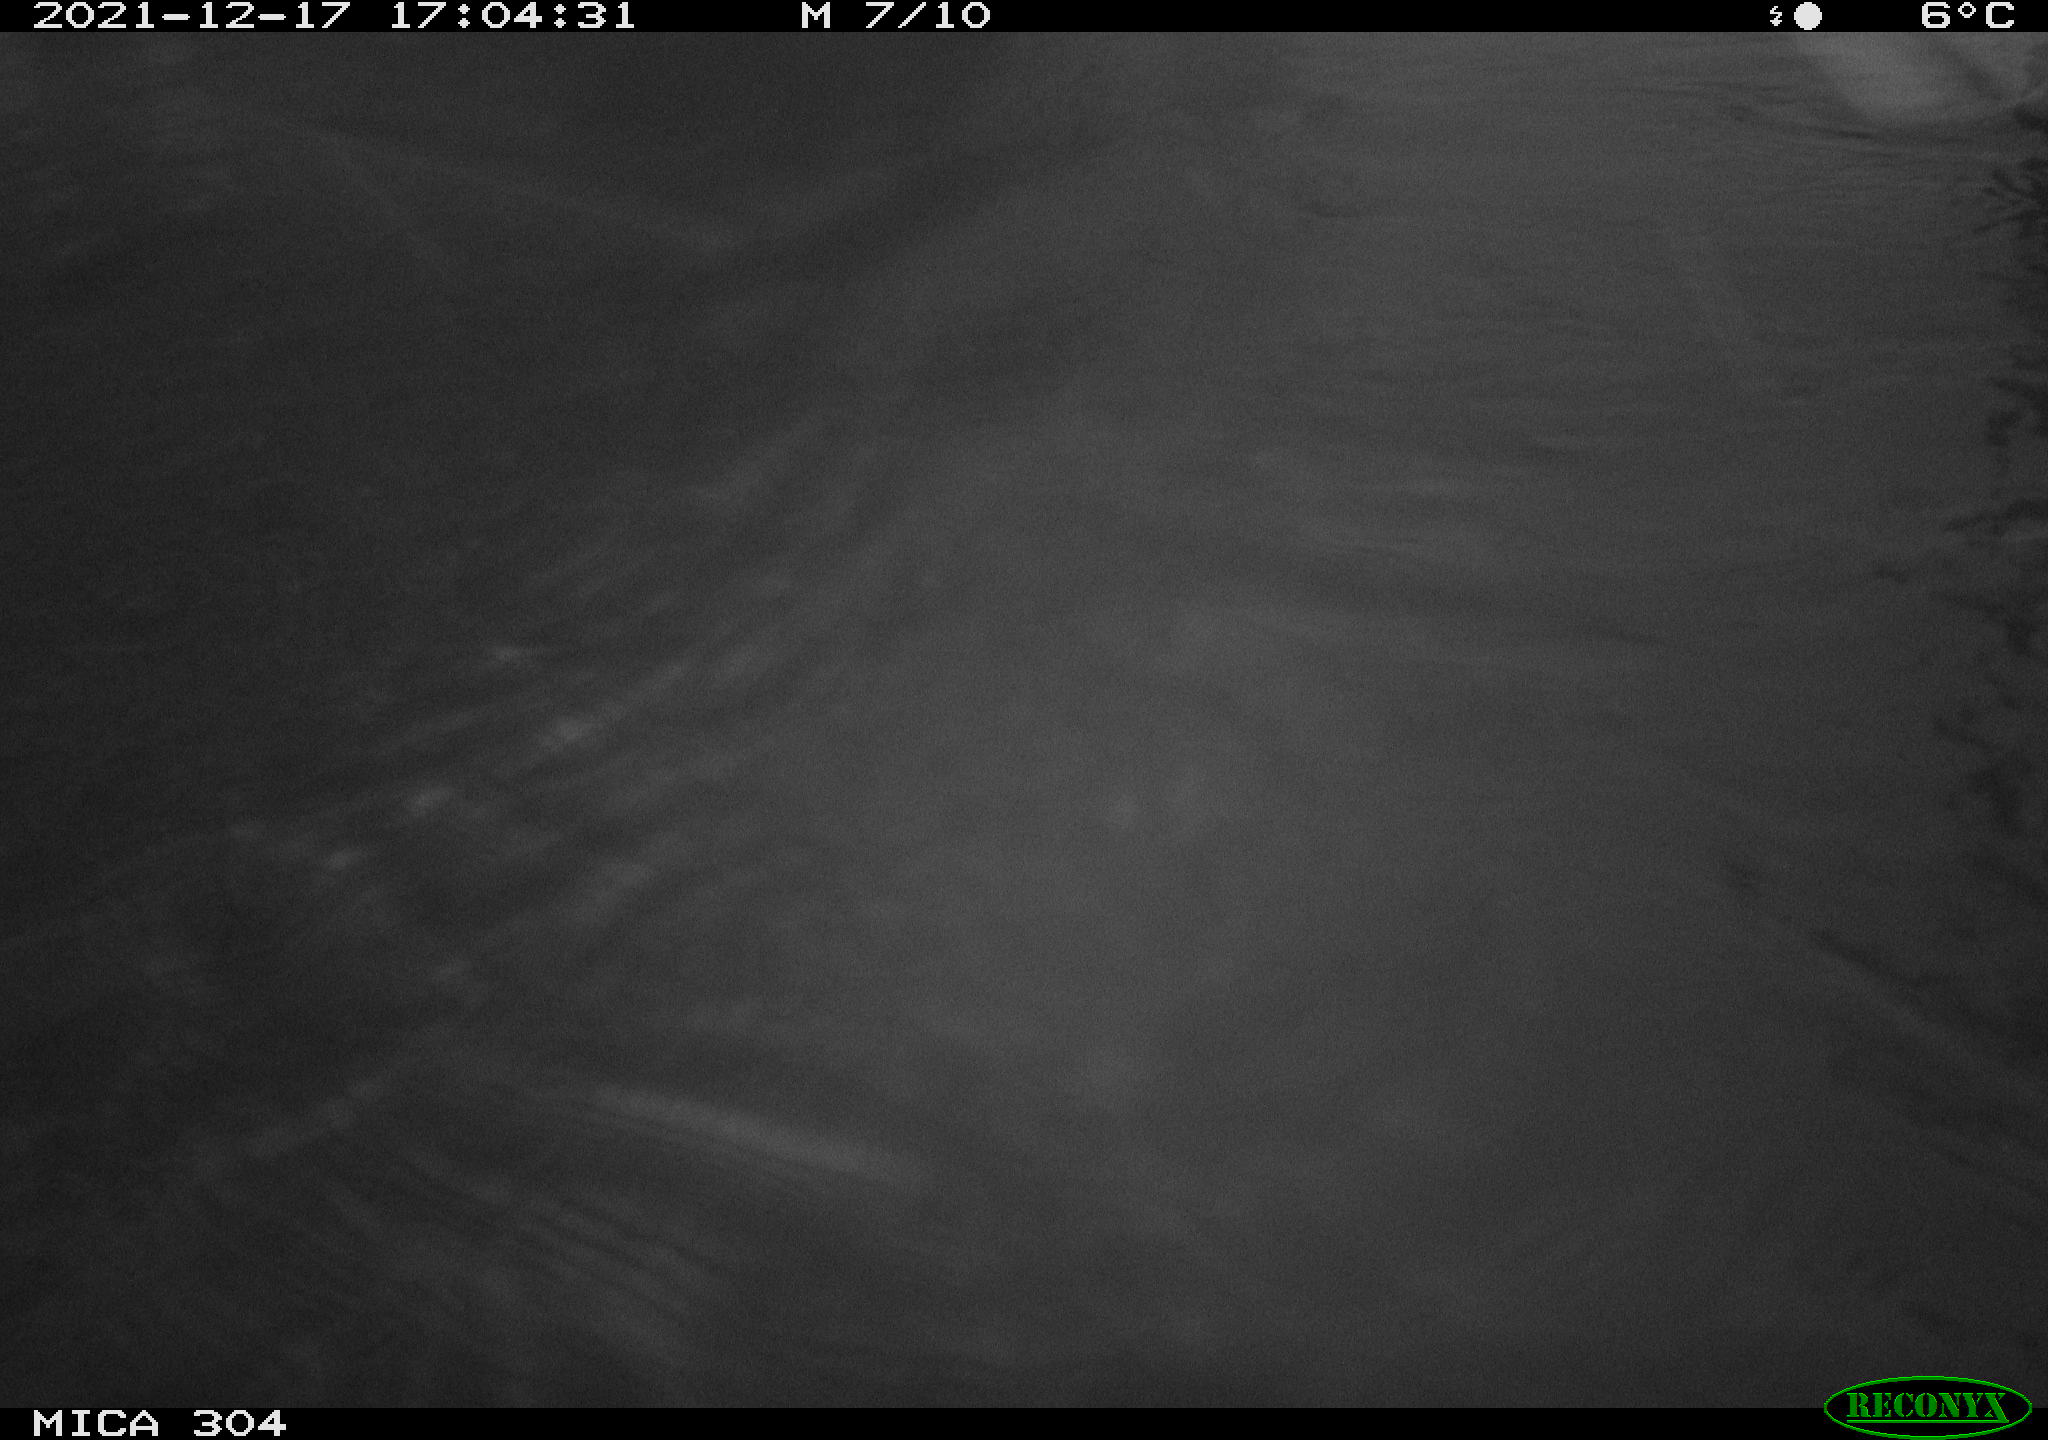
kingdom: Animalia
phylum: Chordata
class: Aves
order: Gruiformes
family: Rallidae
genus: Fulica
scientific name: Fulica atra
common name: Eurasian coot
